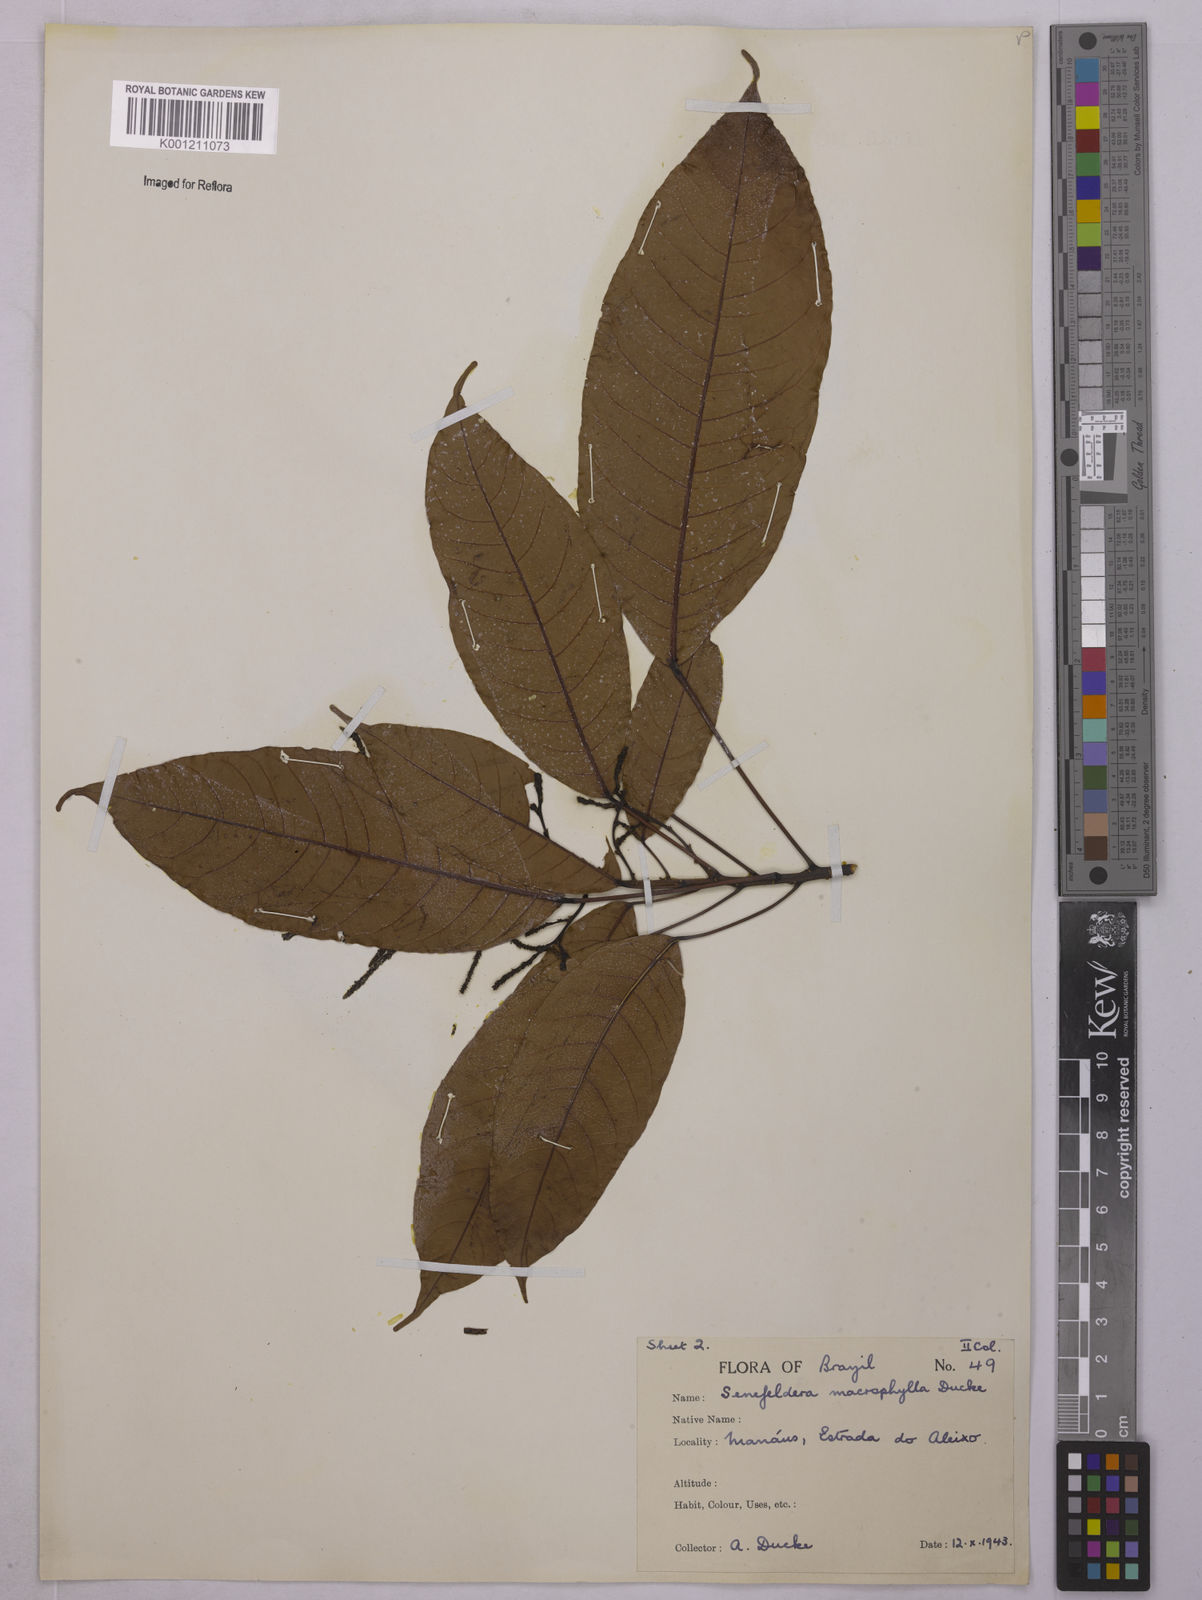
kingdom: Plantae
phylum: Tracheophyta
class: Magnoliopsida
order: Malpighiales
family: Euphorbiaceae
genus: Rhodothyrsus
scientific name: Rhodothyrsus macrophyllus
